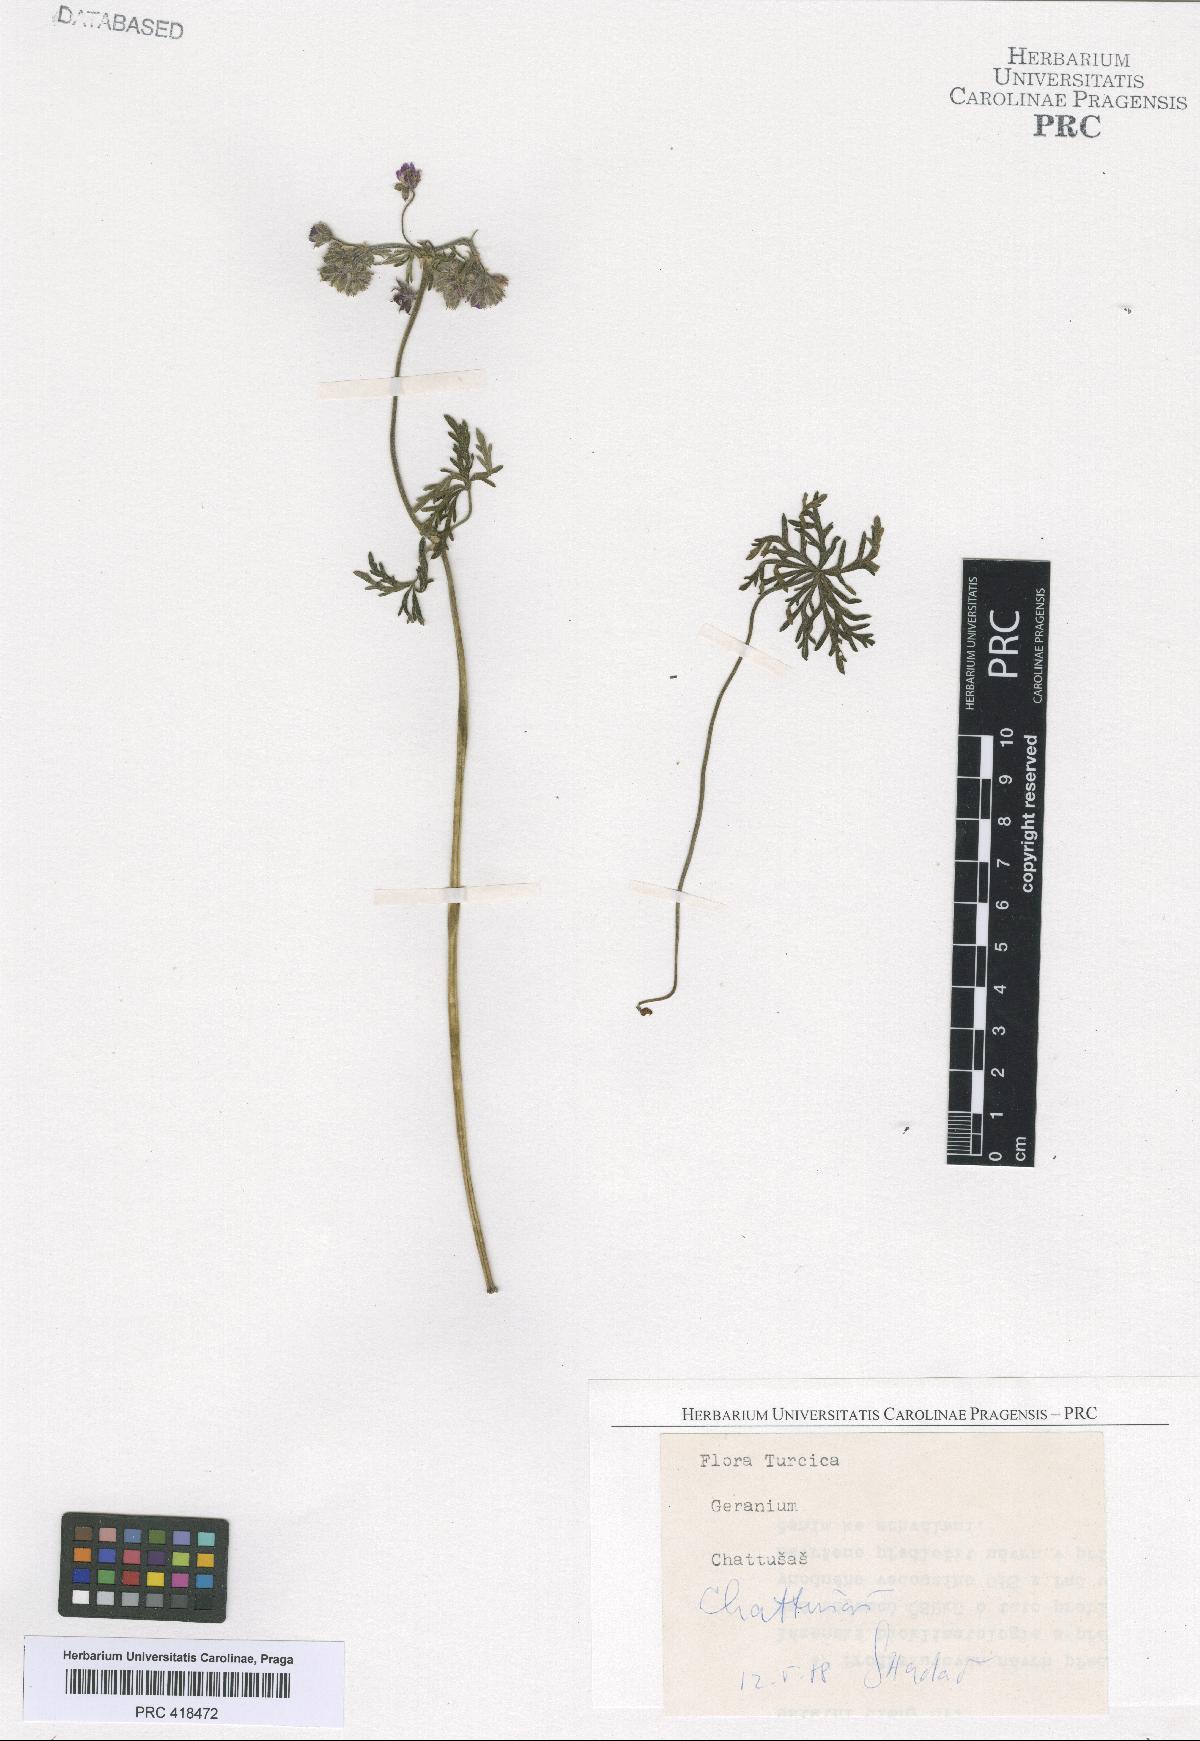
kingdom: Plantae
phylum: Tracheophyta
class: Magnoliopsida
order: Geraniales
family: Geraniaceae
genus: Geranium
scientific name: Geranium macrostylum
